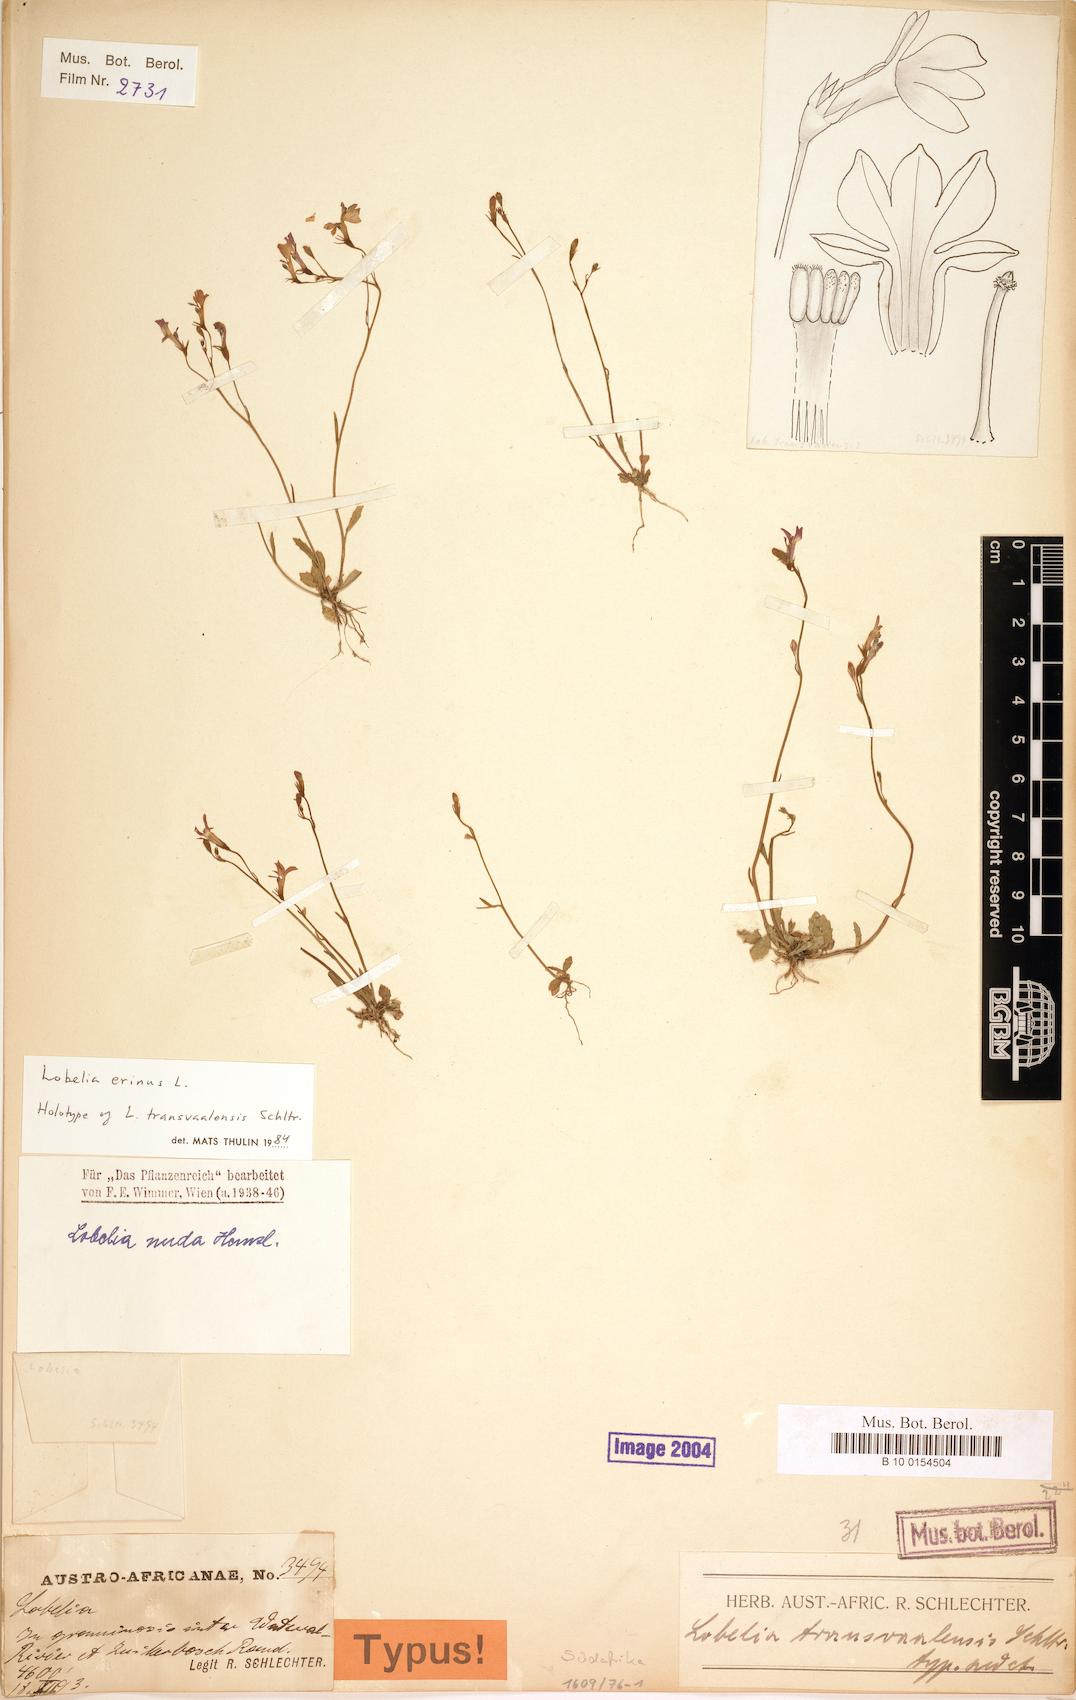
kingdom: Plantae
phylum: Tracheophyta
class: Magnoliopsida
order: Asterales
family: Campanulaceae
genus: Lobelia
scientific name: Lobelia erinus
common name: Edging lobelia
